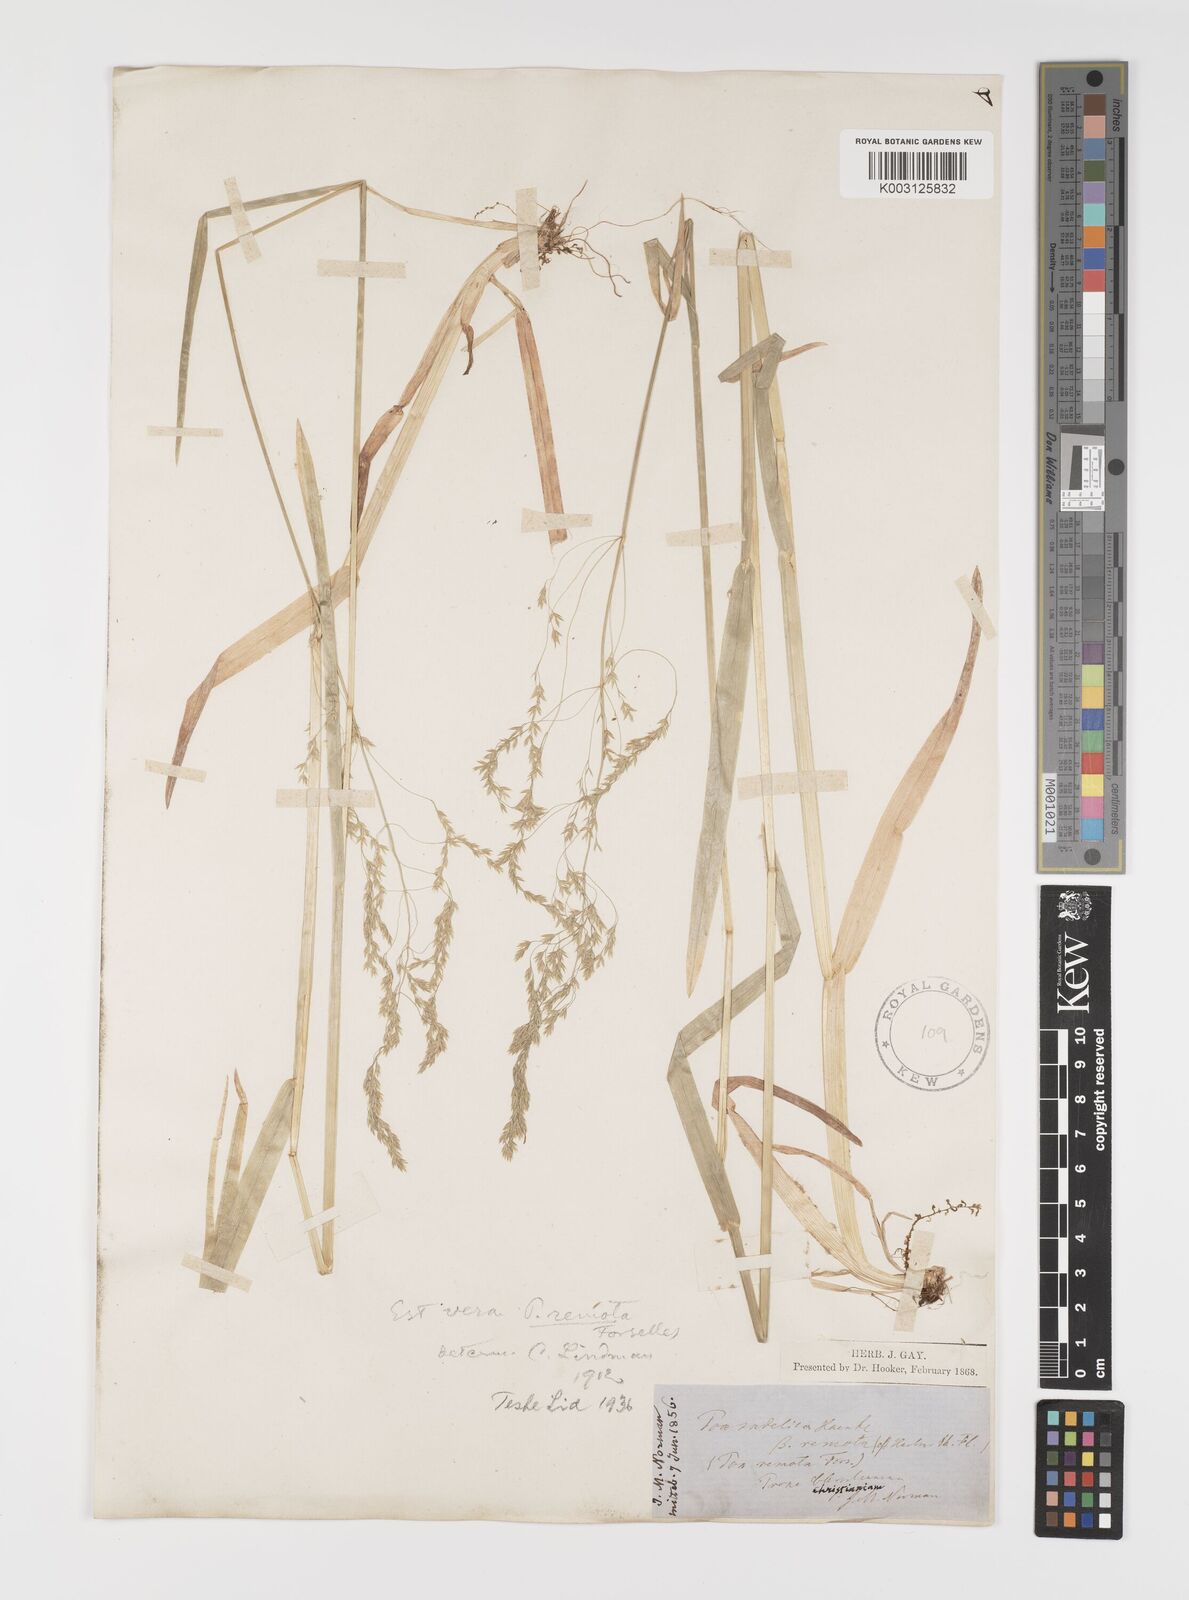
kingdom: Plantae
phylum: Tracheophyta
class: Liliopsida
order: Poales
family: Poaceae
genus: Poa
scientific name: Poa remota
